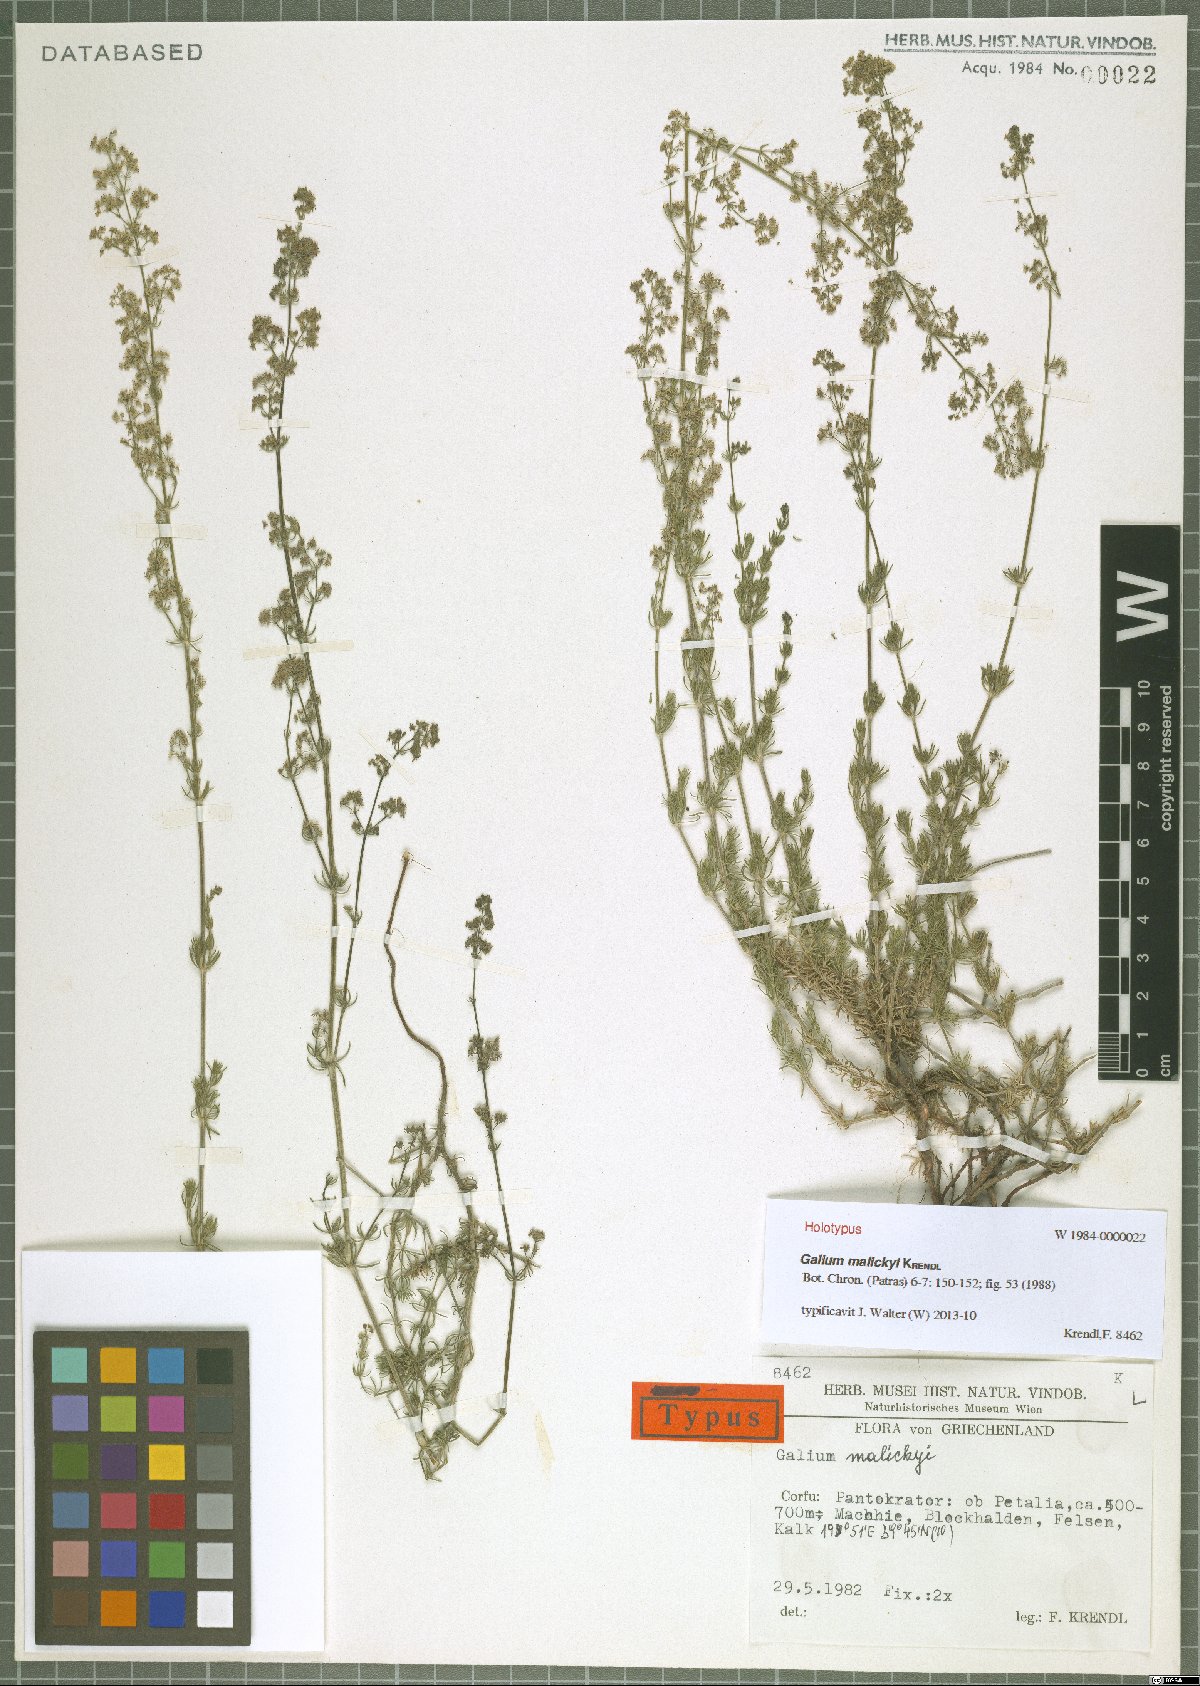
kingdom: Plantae
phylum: Tracheophyta
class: Magnoliopsida
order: Gentianales
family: Rubiaceae
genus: Galium
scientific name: Galium malickyi
